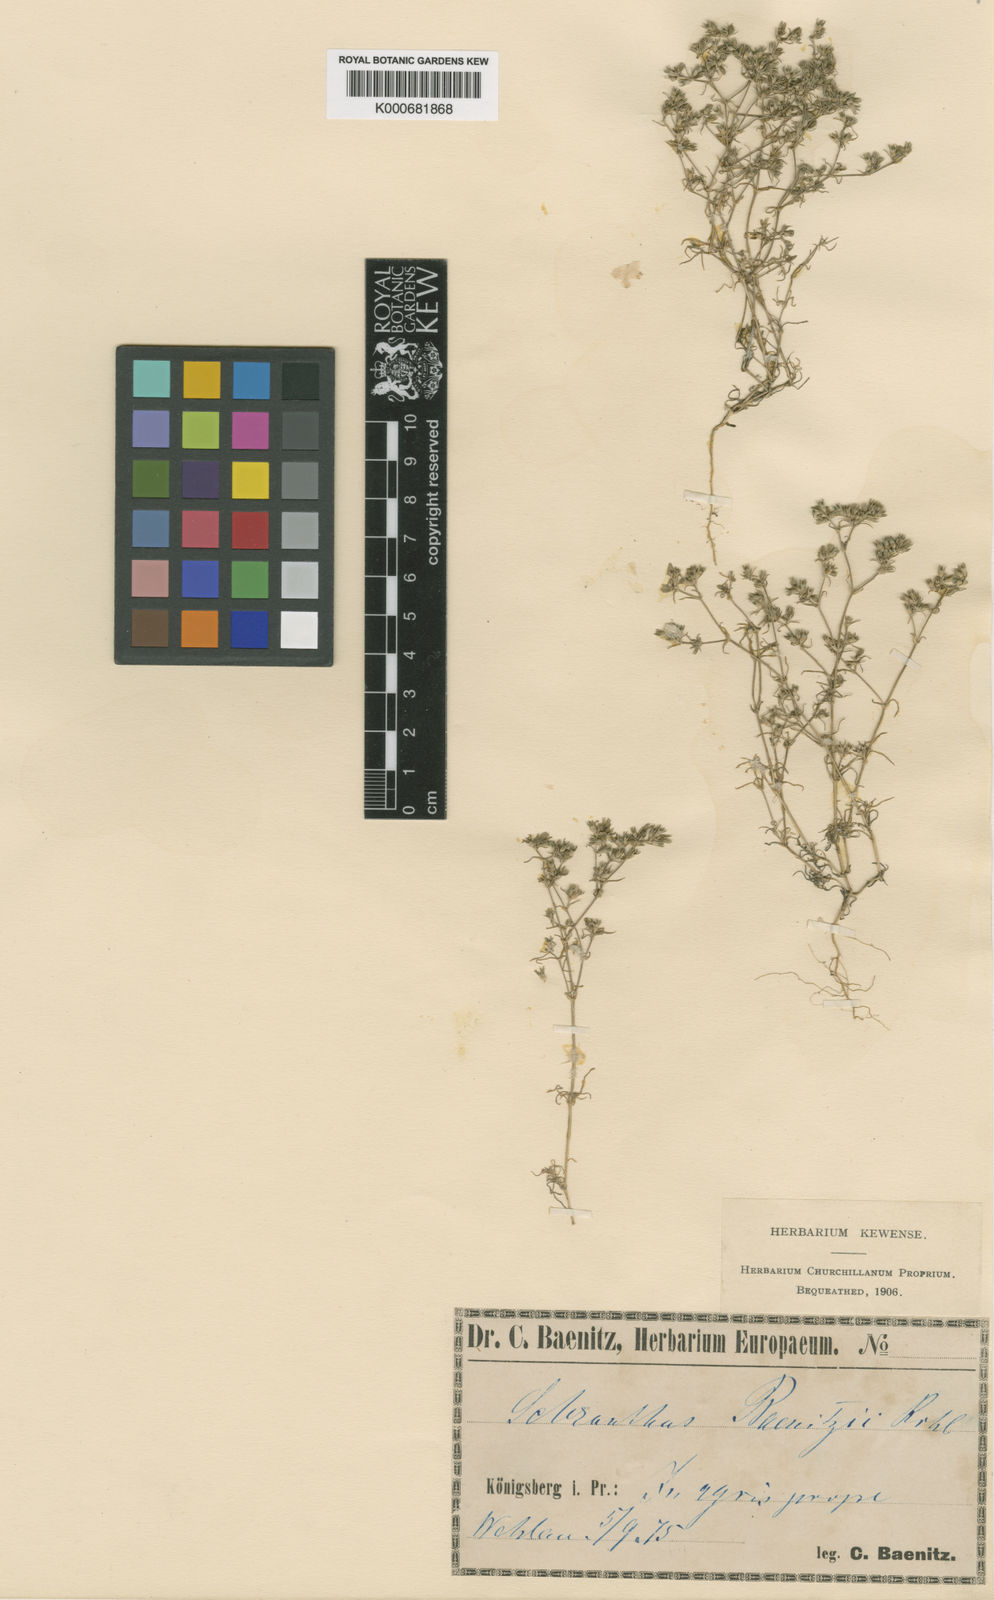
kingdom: Plantae
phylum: Tracheophyta
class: Magnoliopsida
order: Caryophyllales
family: Caryophyllaceae
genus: Scleranthus
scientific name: Scleranthus annuus
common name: Annual knawel
